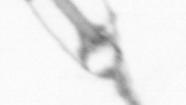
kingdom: Animalia
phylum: Arthropoda
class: Copepoda
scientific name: Copepoda
